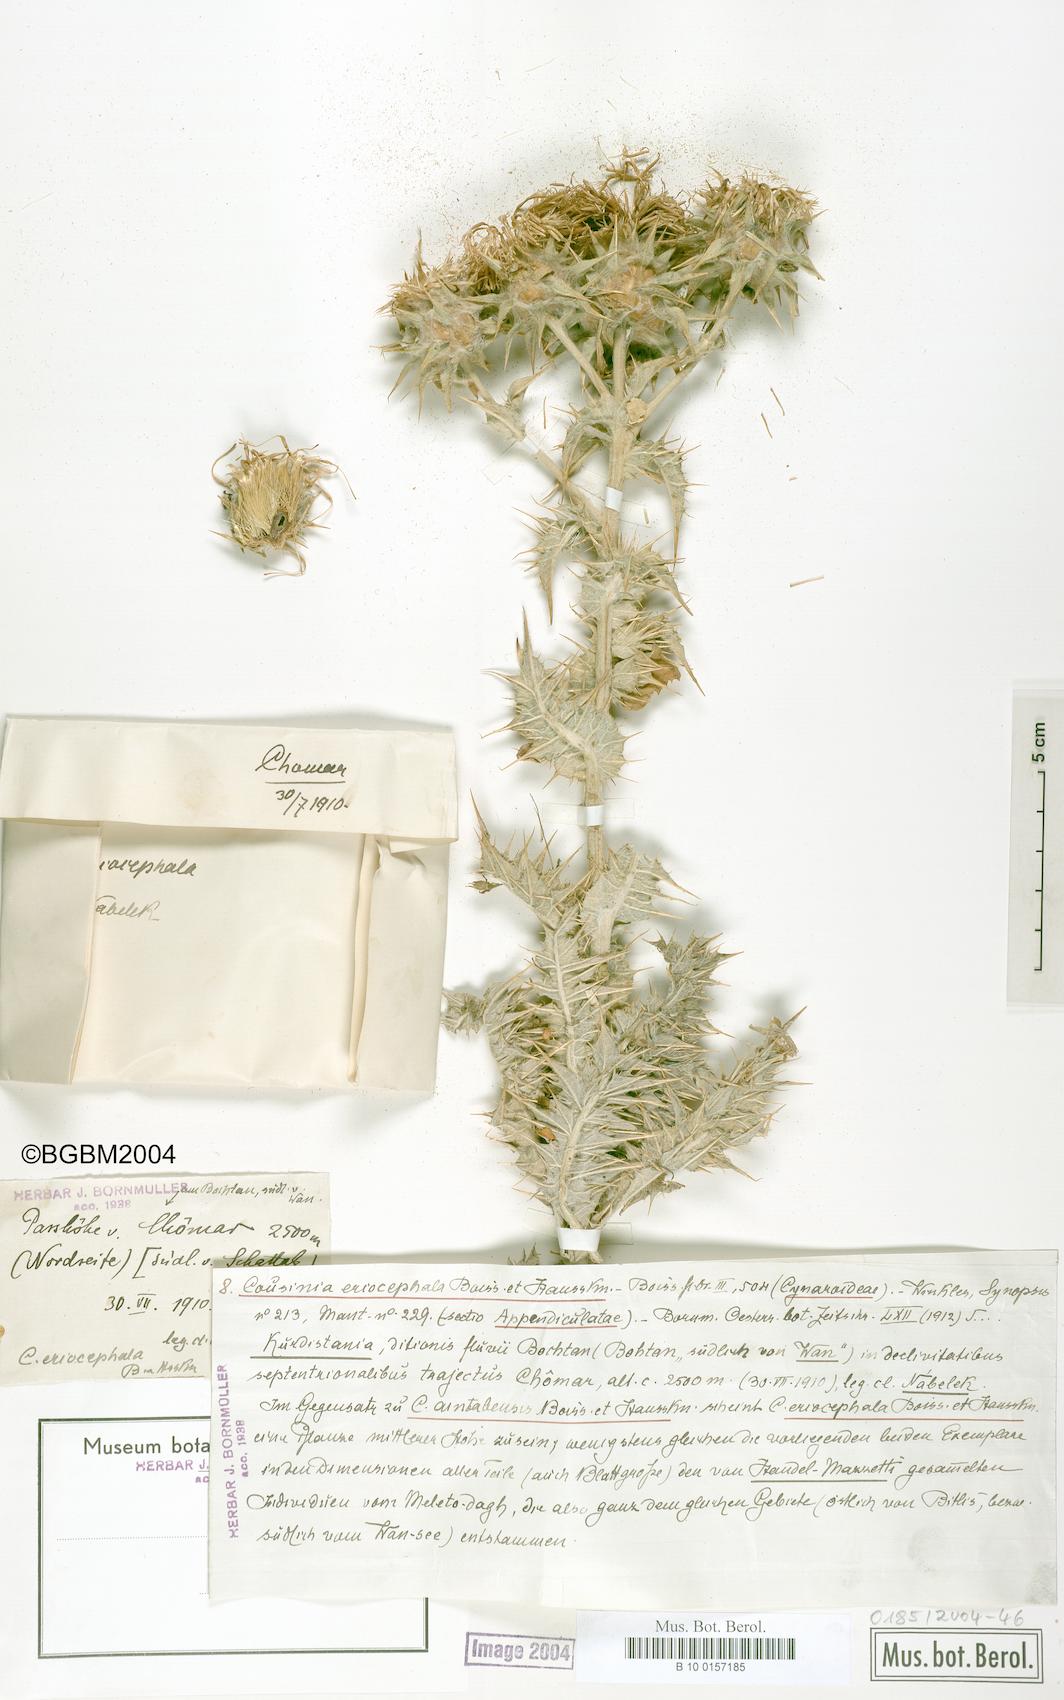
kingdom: Plantae
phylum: Tracheophyta
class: Magnoliopsida
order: Asterales
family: Asteraceae
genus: Cousinia
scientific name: Cousinia canescens
